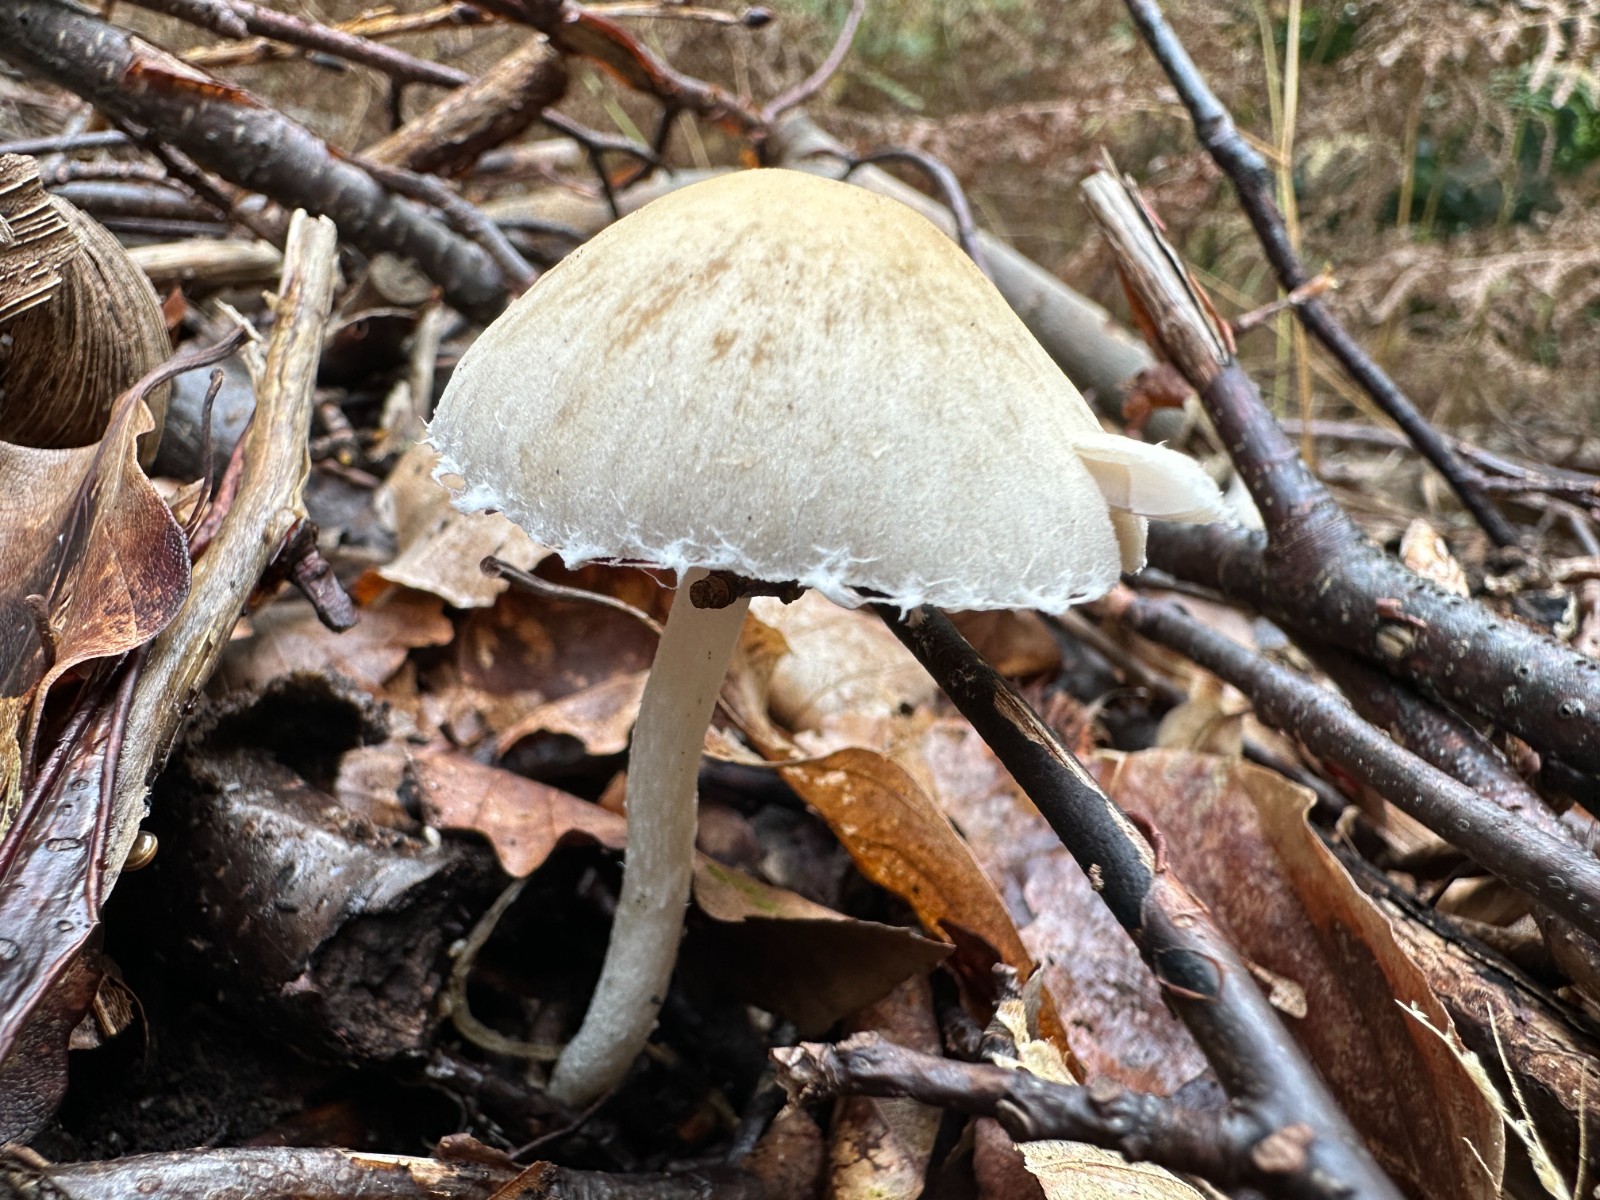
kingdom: Fungi
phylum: Basidiomycota
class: Agaricomycetes
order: Agaricales
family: Psathyrellaceae
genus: Candolleomyces
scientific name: Candolleomyces candolleanus
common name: Candolles mørkhat
